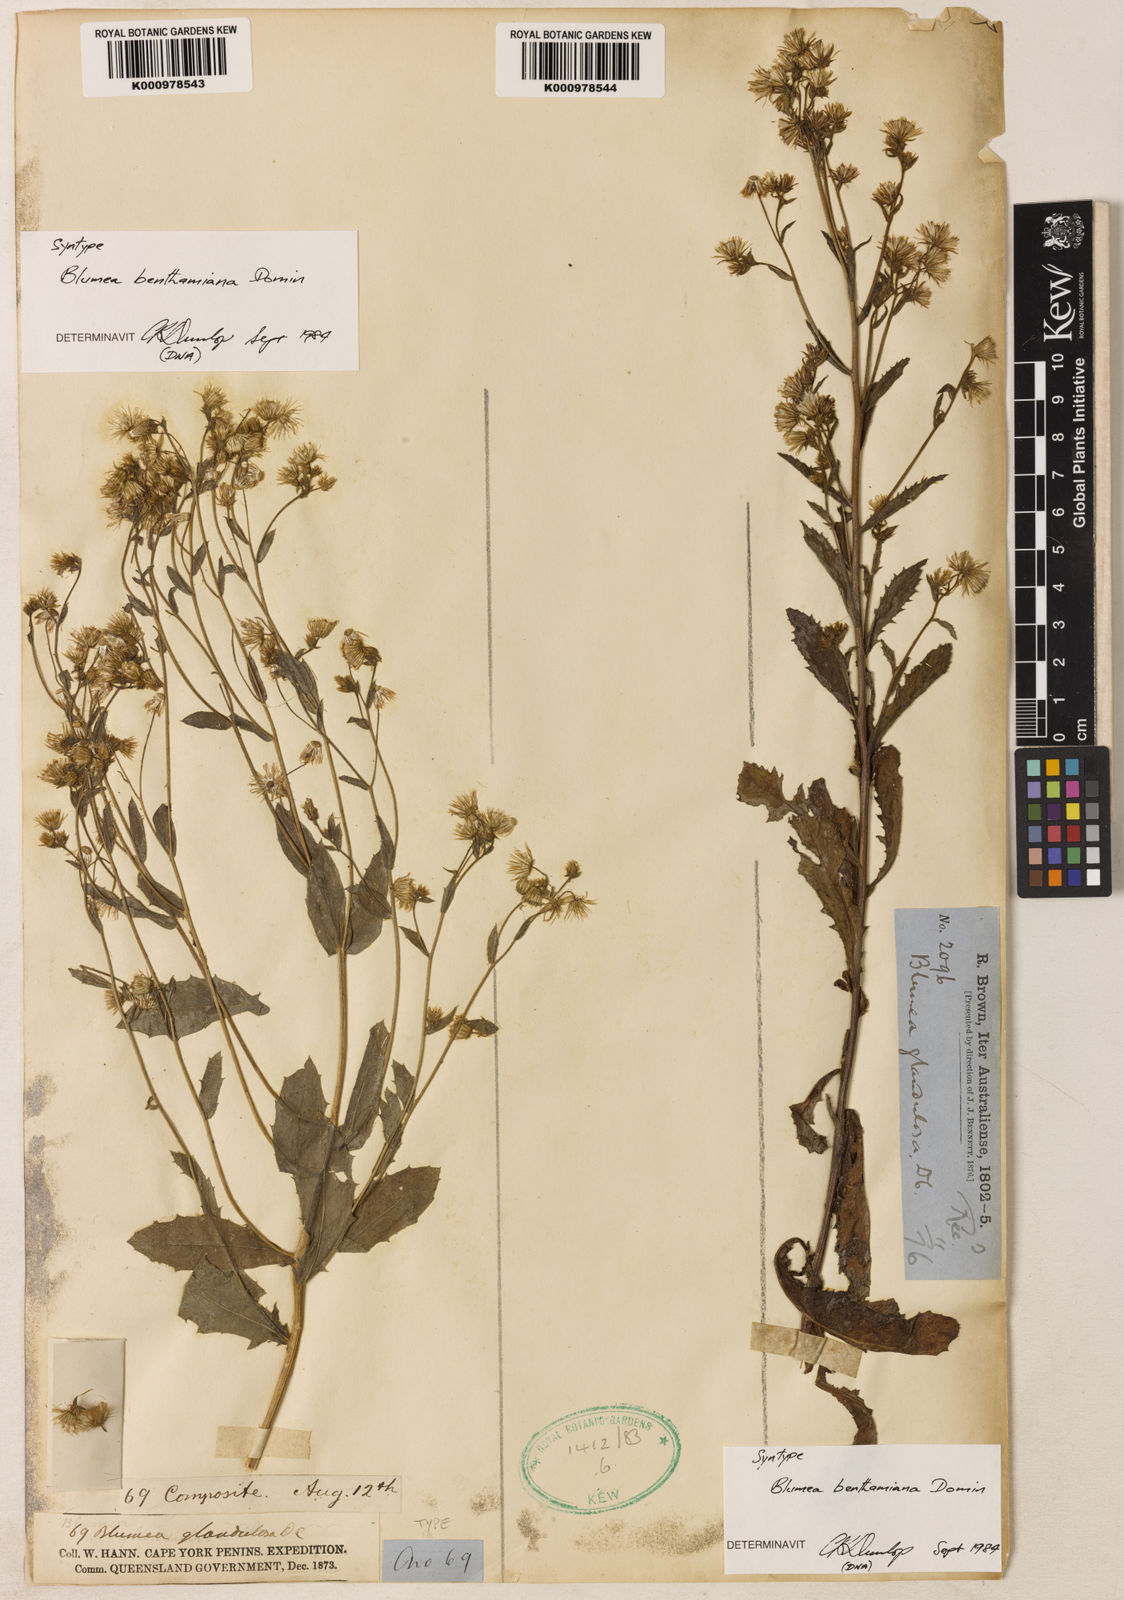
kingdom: Plantae
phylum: Tracheophyta
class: Magnoliopsida
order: Asterales
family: Asteraceae
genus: Blumea
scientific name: Blumea benthamiana
